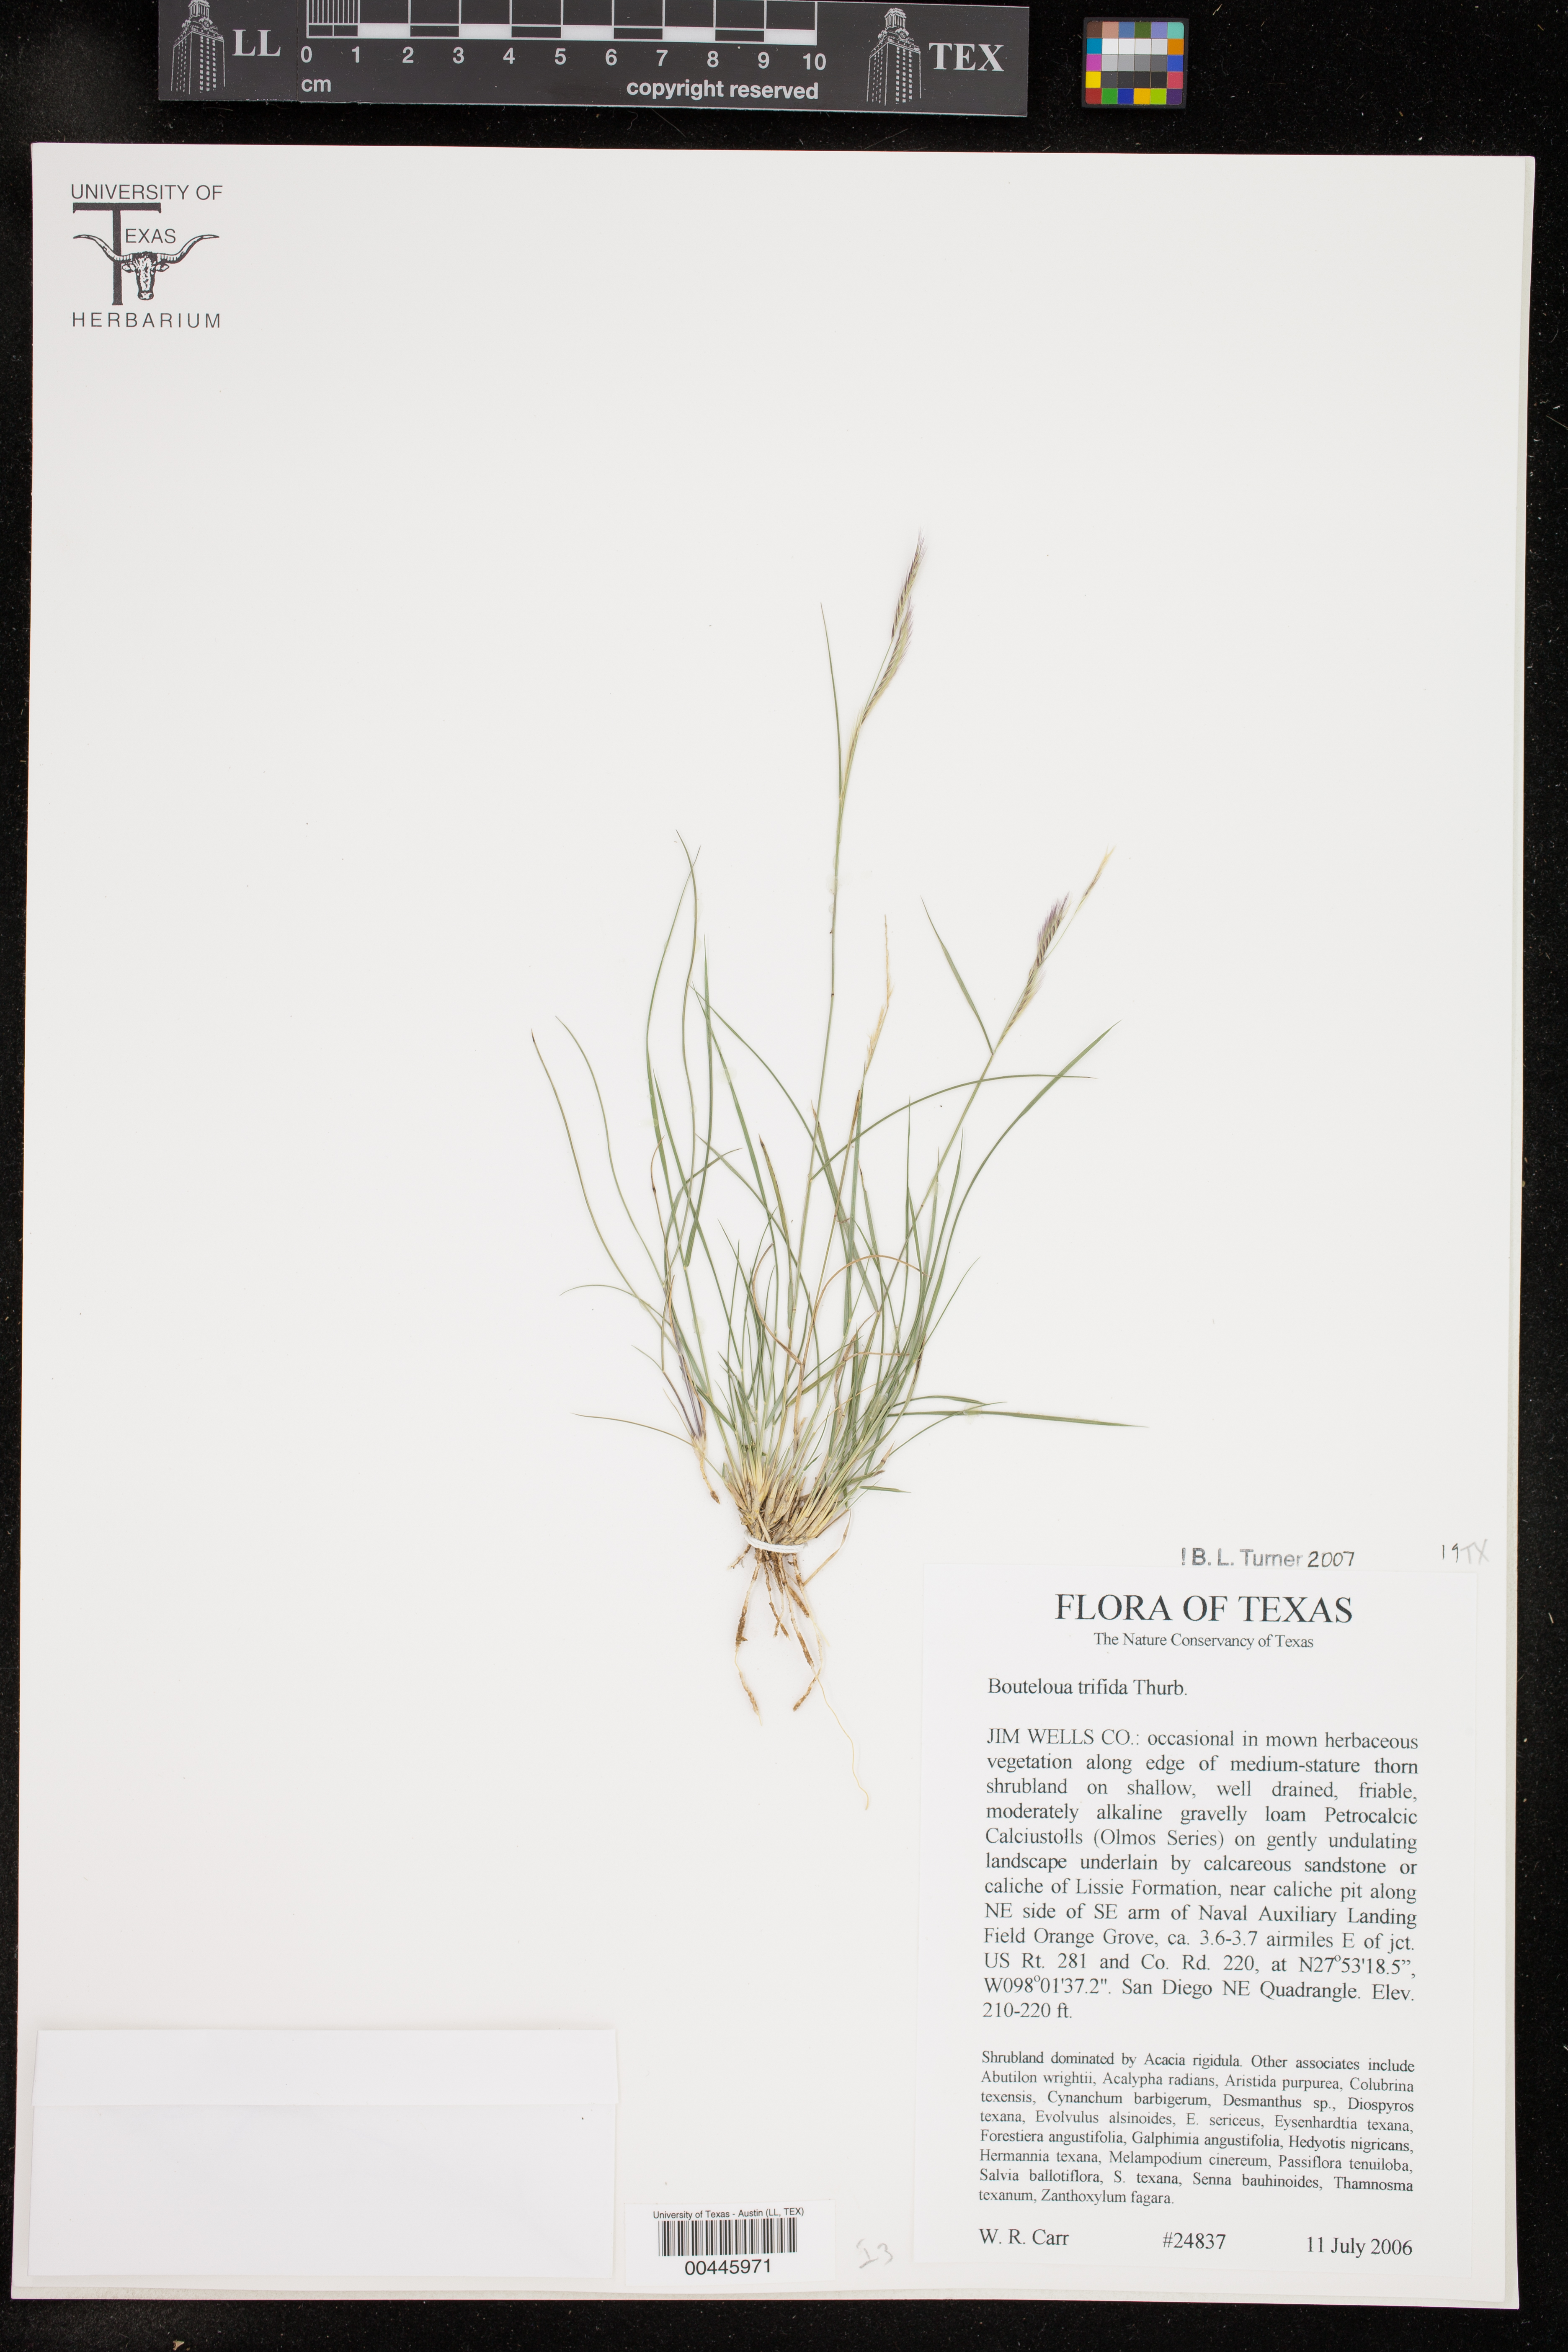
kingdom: Plantae
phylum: Tracheophyta
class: Liliopsida
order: Poales
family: Poaceae
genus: Bouteloua
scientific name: Bouteloua trifida
